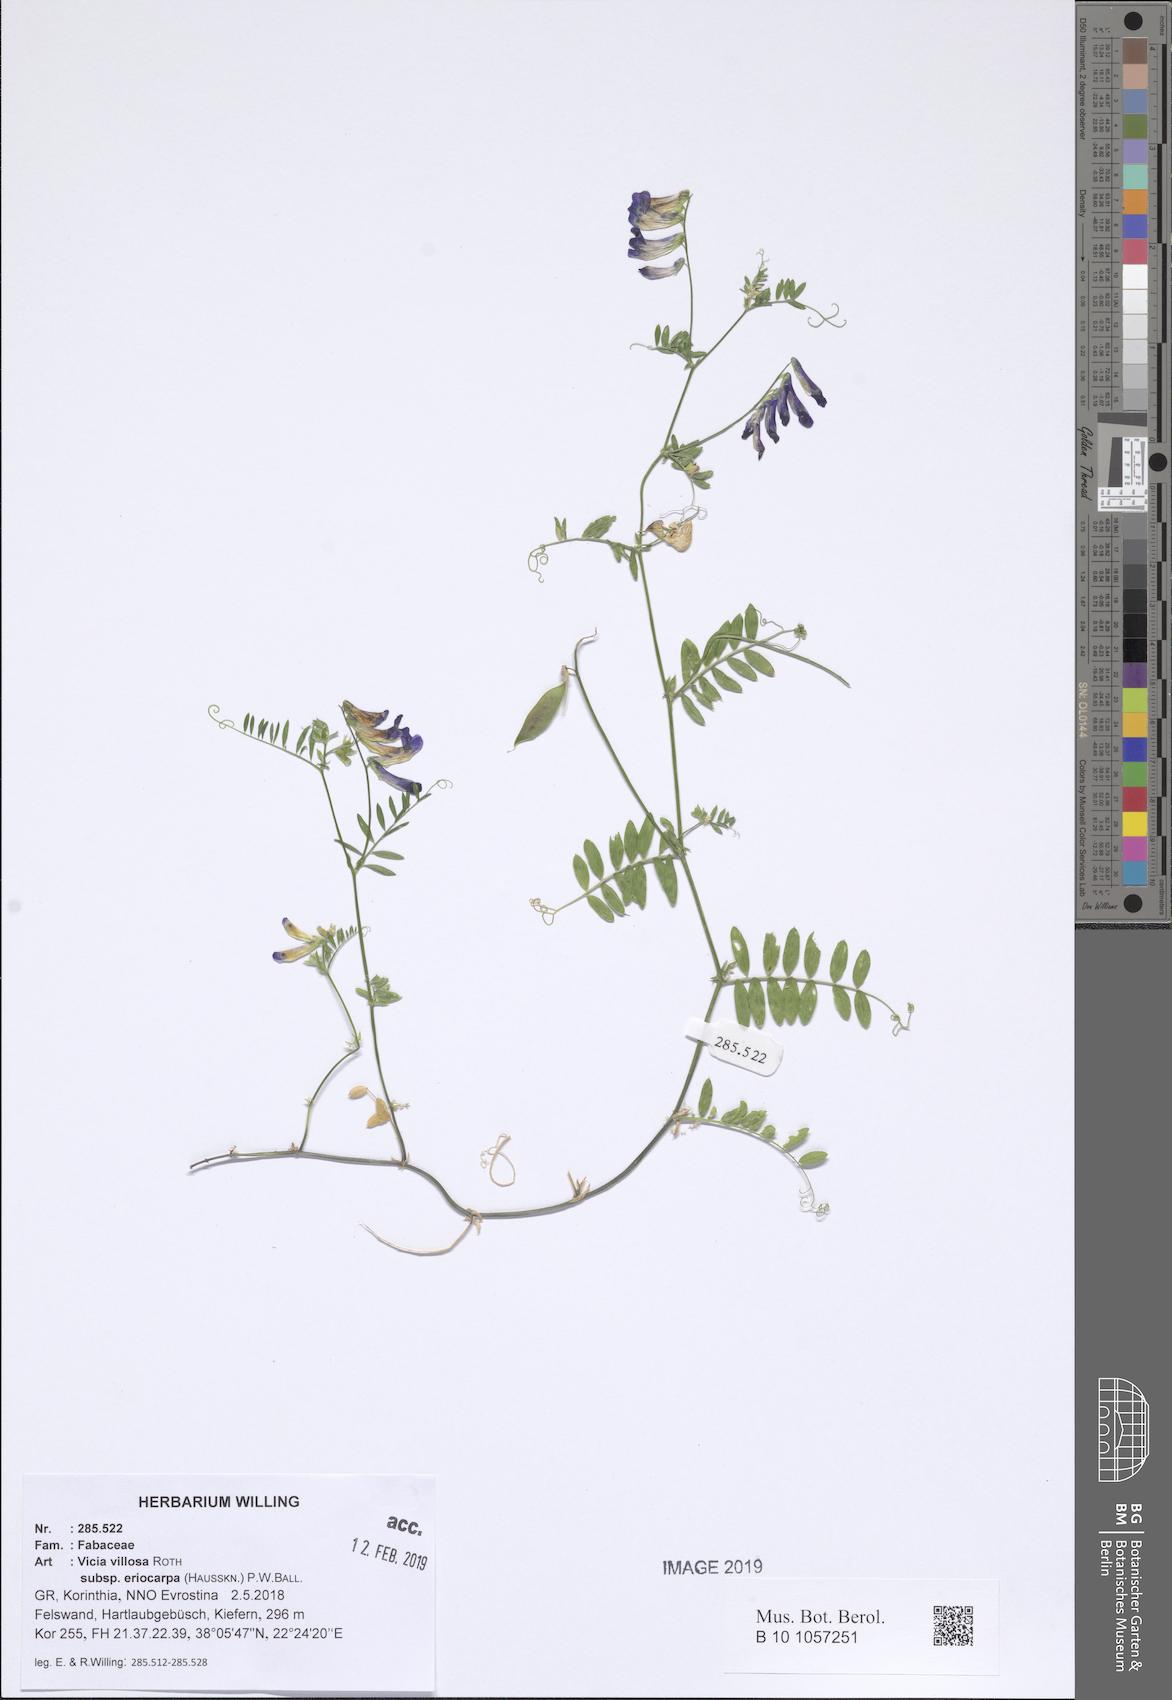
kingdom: Plantae
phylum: Tracheophyta
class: Magnoliopsida
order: Fabales
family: Fabaceae
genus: Vicia
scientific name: Vicia eriocarpa
